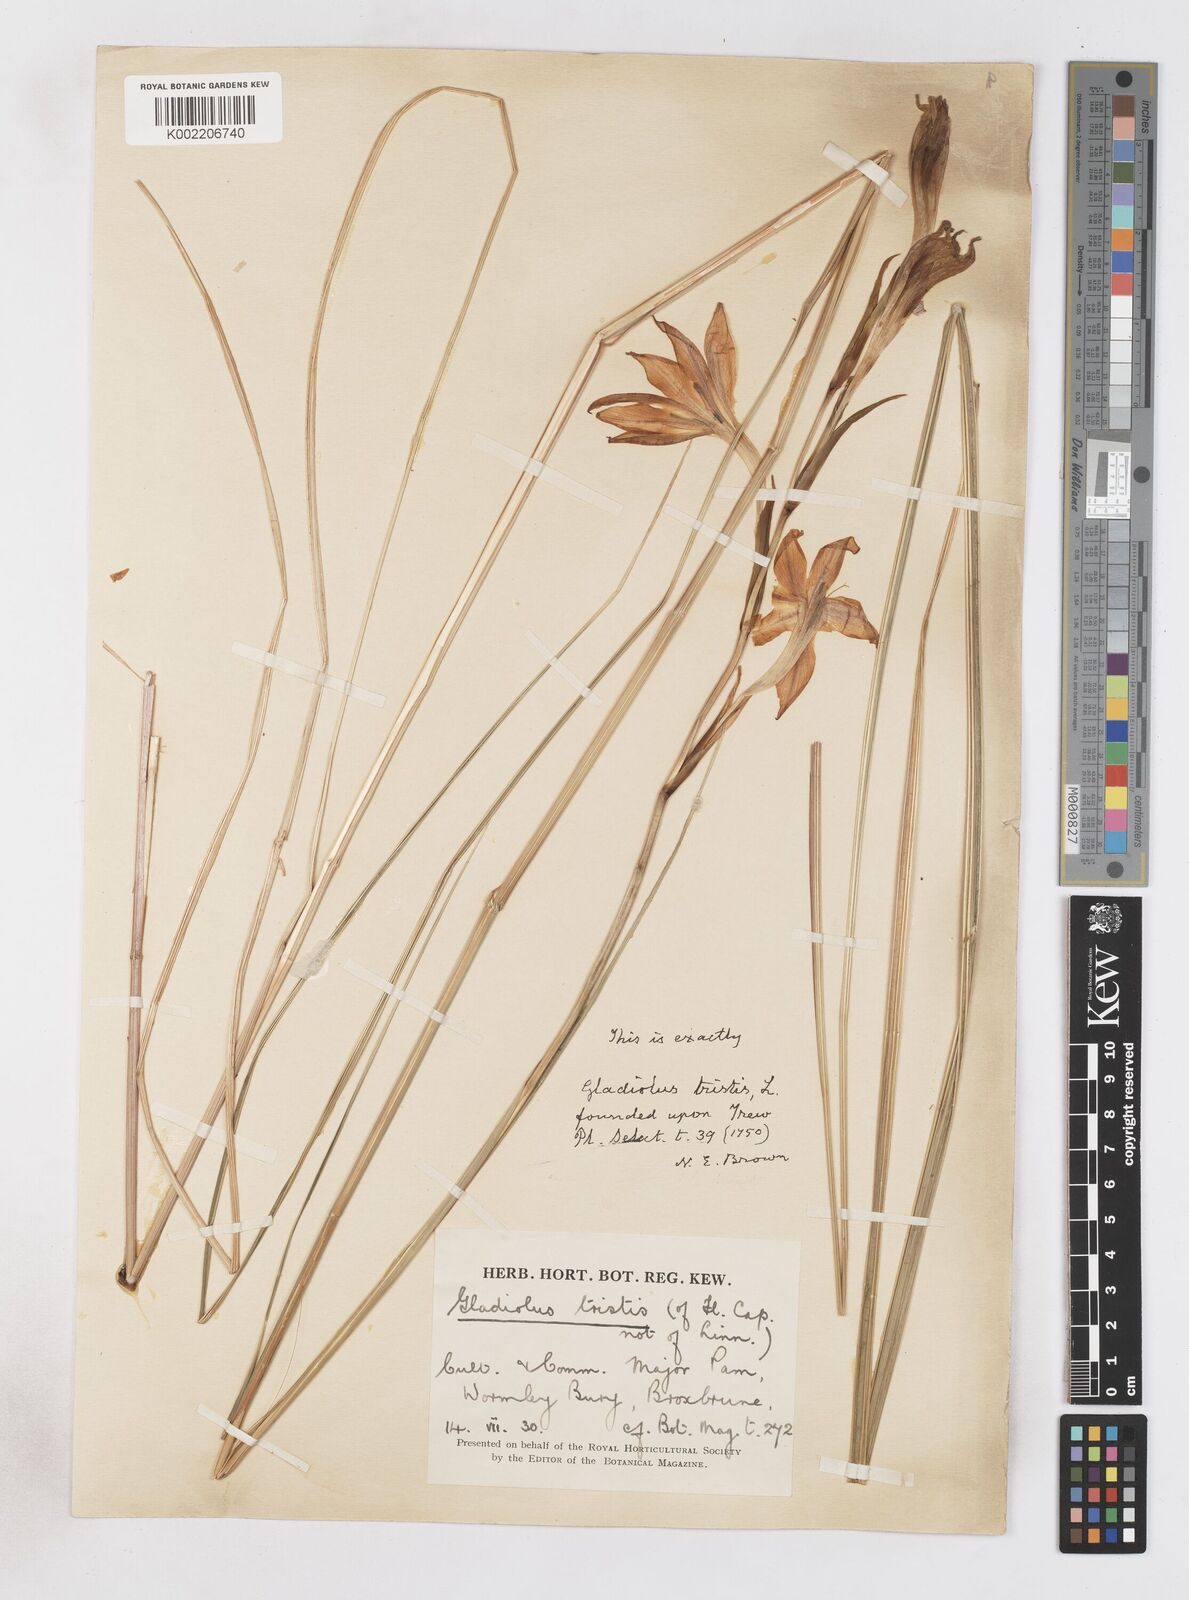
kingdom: Plantae
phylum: Tracheophyta
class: Liliopsida
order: Asparagales
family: Iridaceae
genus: Gladiolus
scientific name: Gladiolus tristis
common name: Ever-flowering gladiolus
